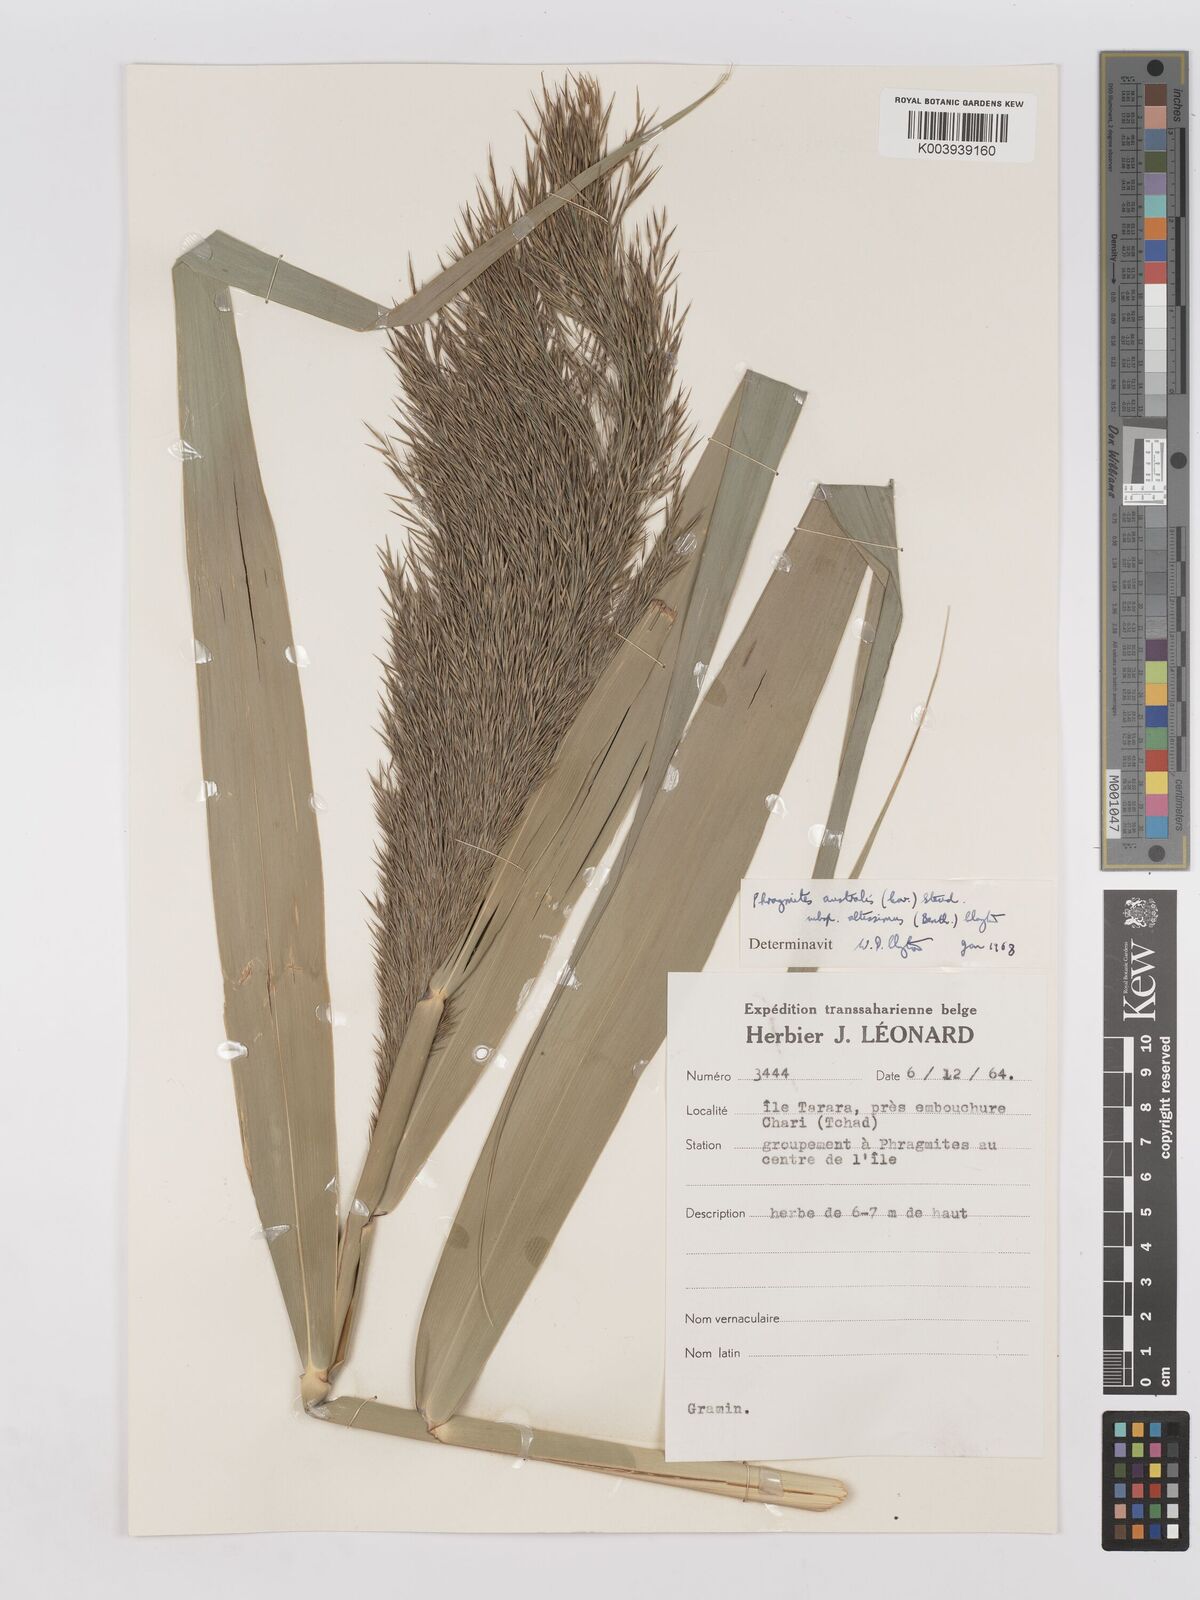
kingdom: Plantae
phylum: Tracheophyta
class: Liliopsida
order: Poales
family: Poaceae
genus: Phragmites
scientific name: Phragmites australis
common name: Common reed
